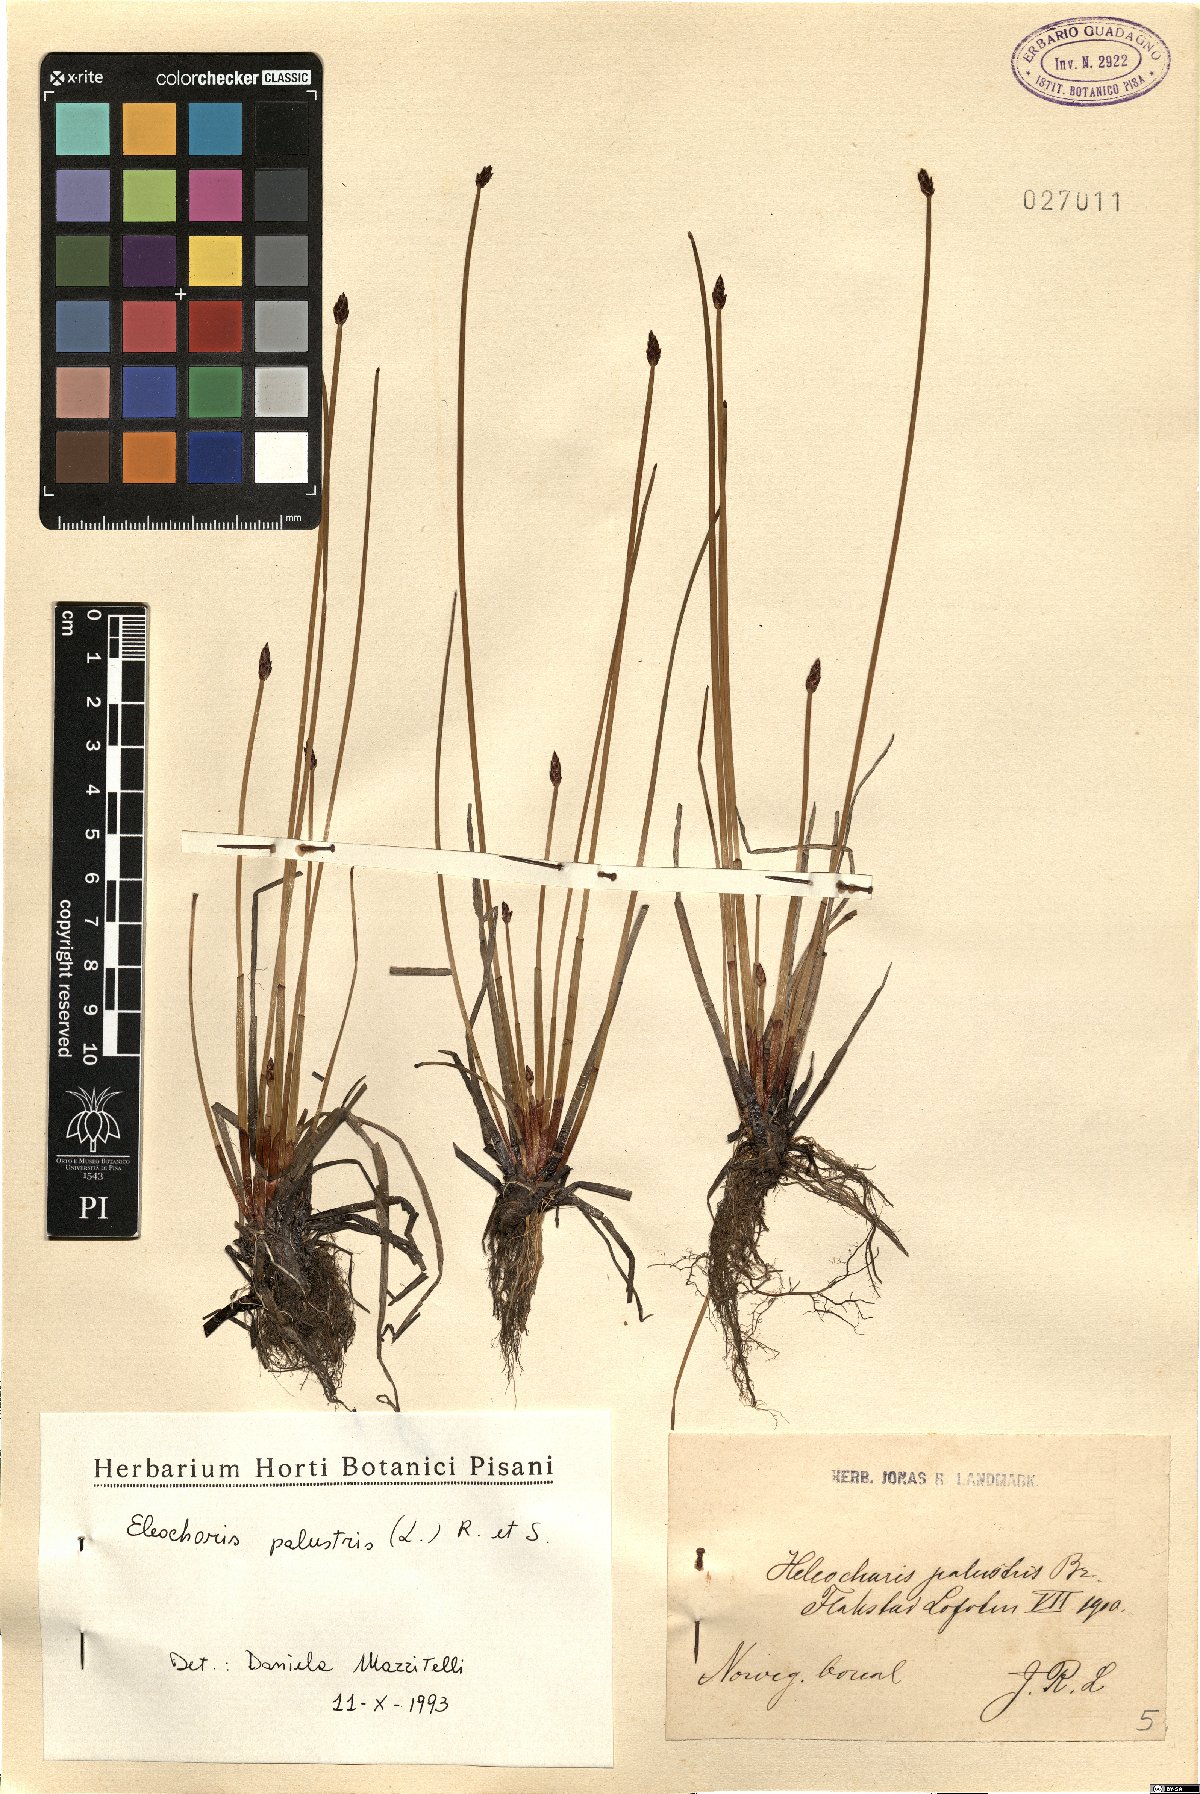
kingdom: Plantae
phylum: Tracheophyta
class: Liliopsida
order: Poales
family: Cyperaceae
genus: Eleocharis
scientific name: Eleocharis palustris
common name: Common spike-rush
